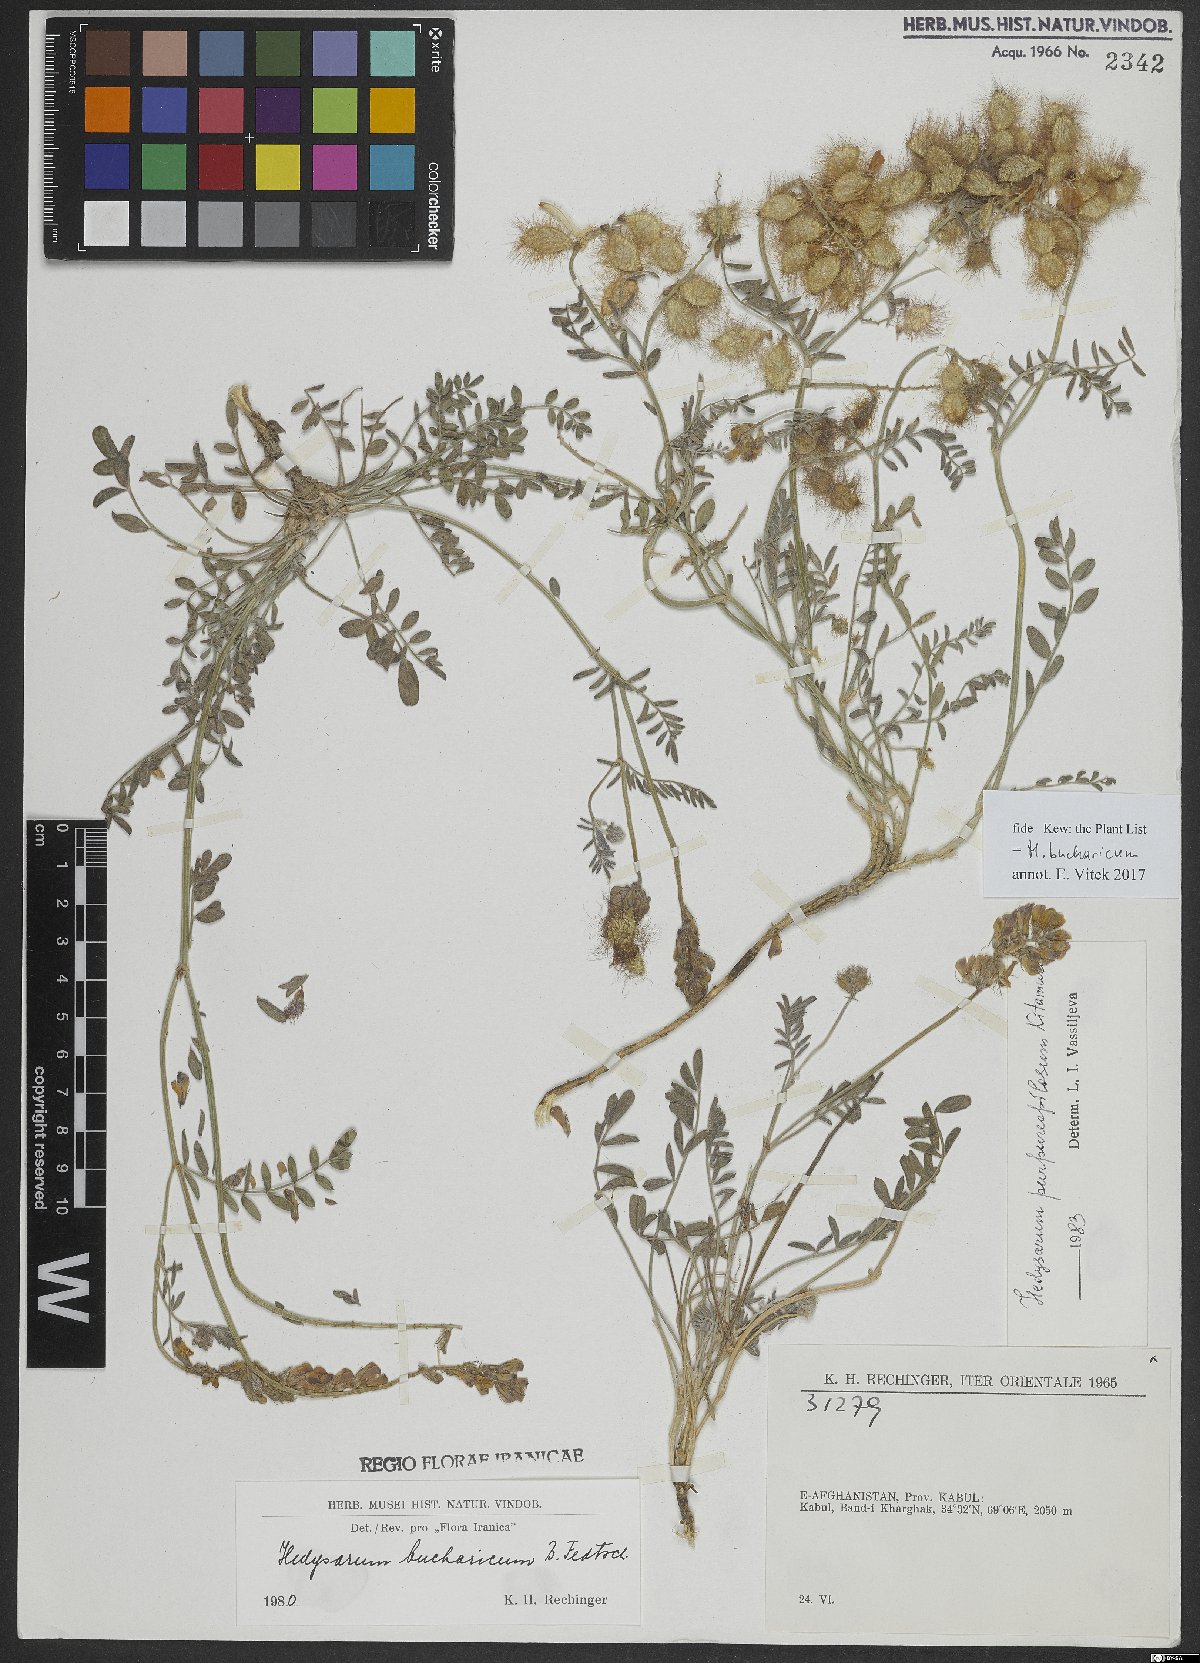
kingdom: Plantae
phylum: Tracheophyta
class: Magnoliopsida
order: Fabales
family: Fabaceae
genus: Hedysarum
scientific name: Hedysarum bucharicum
